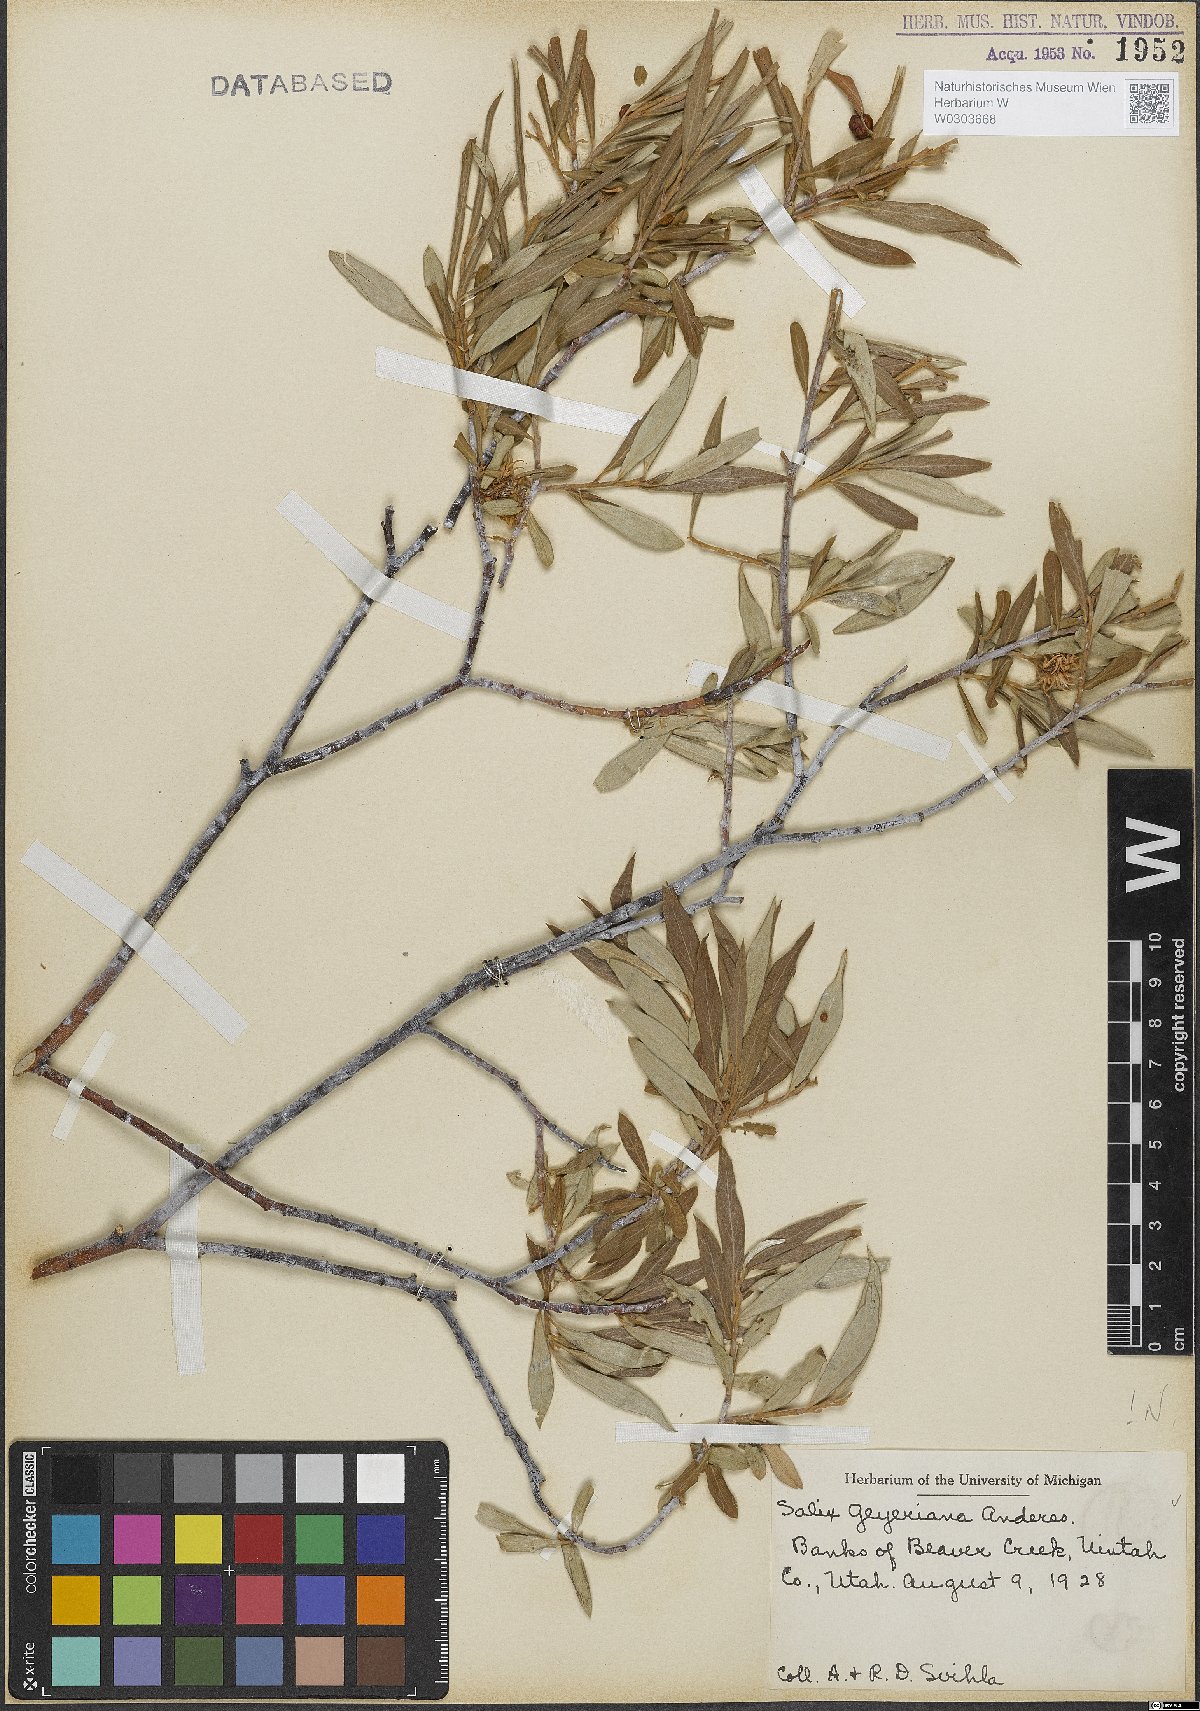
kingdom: Plantae
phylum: Tracheophyta
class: Magnoliopsida
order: Malpighiales
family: Salicaceae
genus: Salix
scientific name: Salix geyeriana
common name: Geyer's willow
